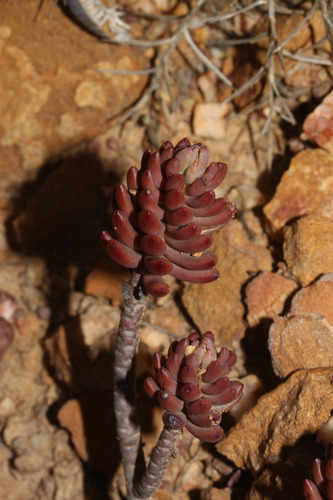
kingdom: Plantae
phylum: Tracheophyta
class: Magnoliopsida
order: Saxifragales
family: Crassulaceae
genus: Petrosedum
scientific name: Petrosedum sediforme
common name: Pale stonecrop
